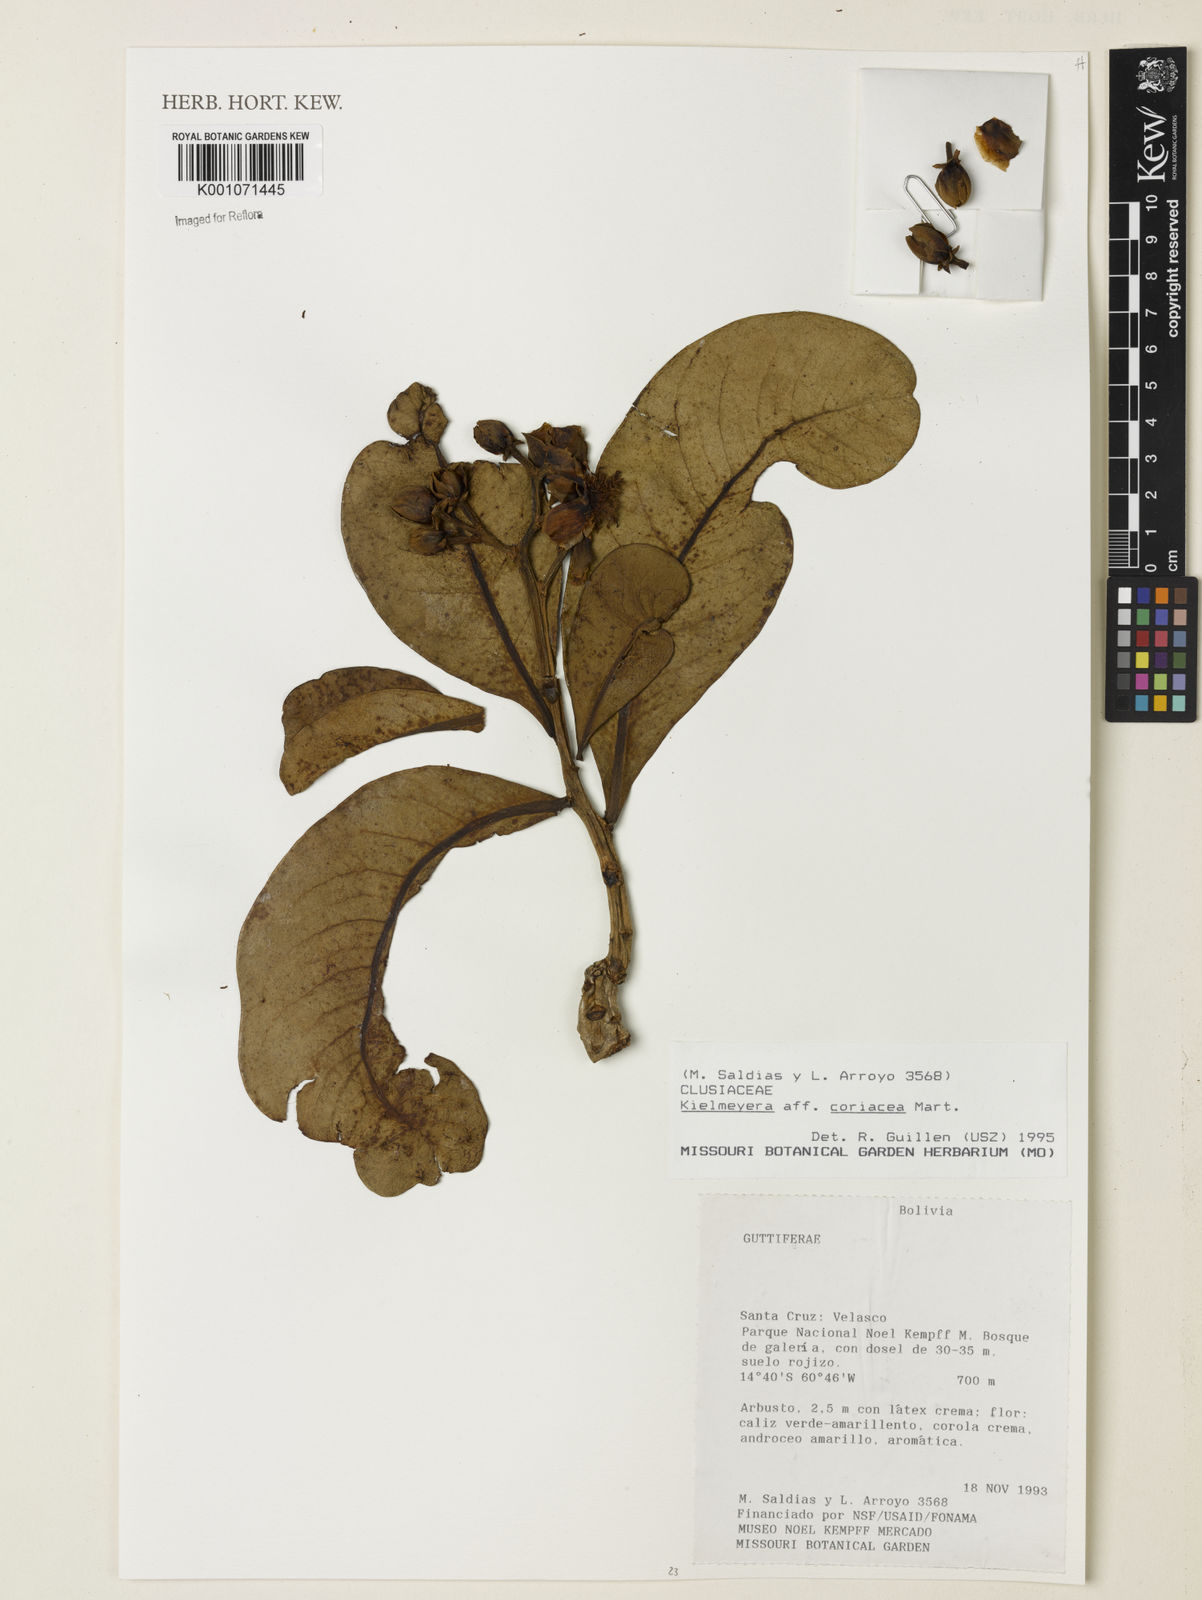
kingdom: Plantae
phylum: Tracheophyta
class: Magnoliopsida
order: Malpighiales
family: Calophyllaceae
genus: Kielmeyera
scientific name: Kielmeyera coriacea
